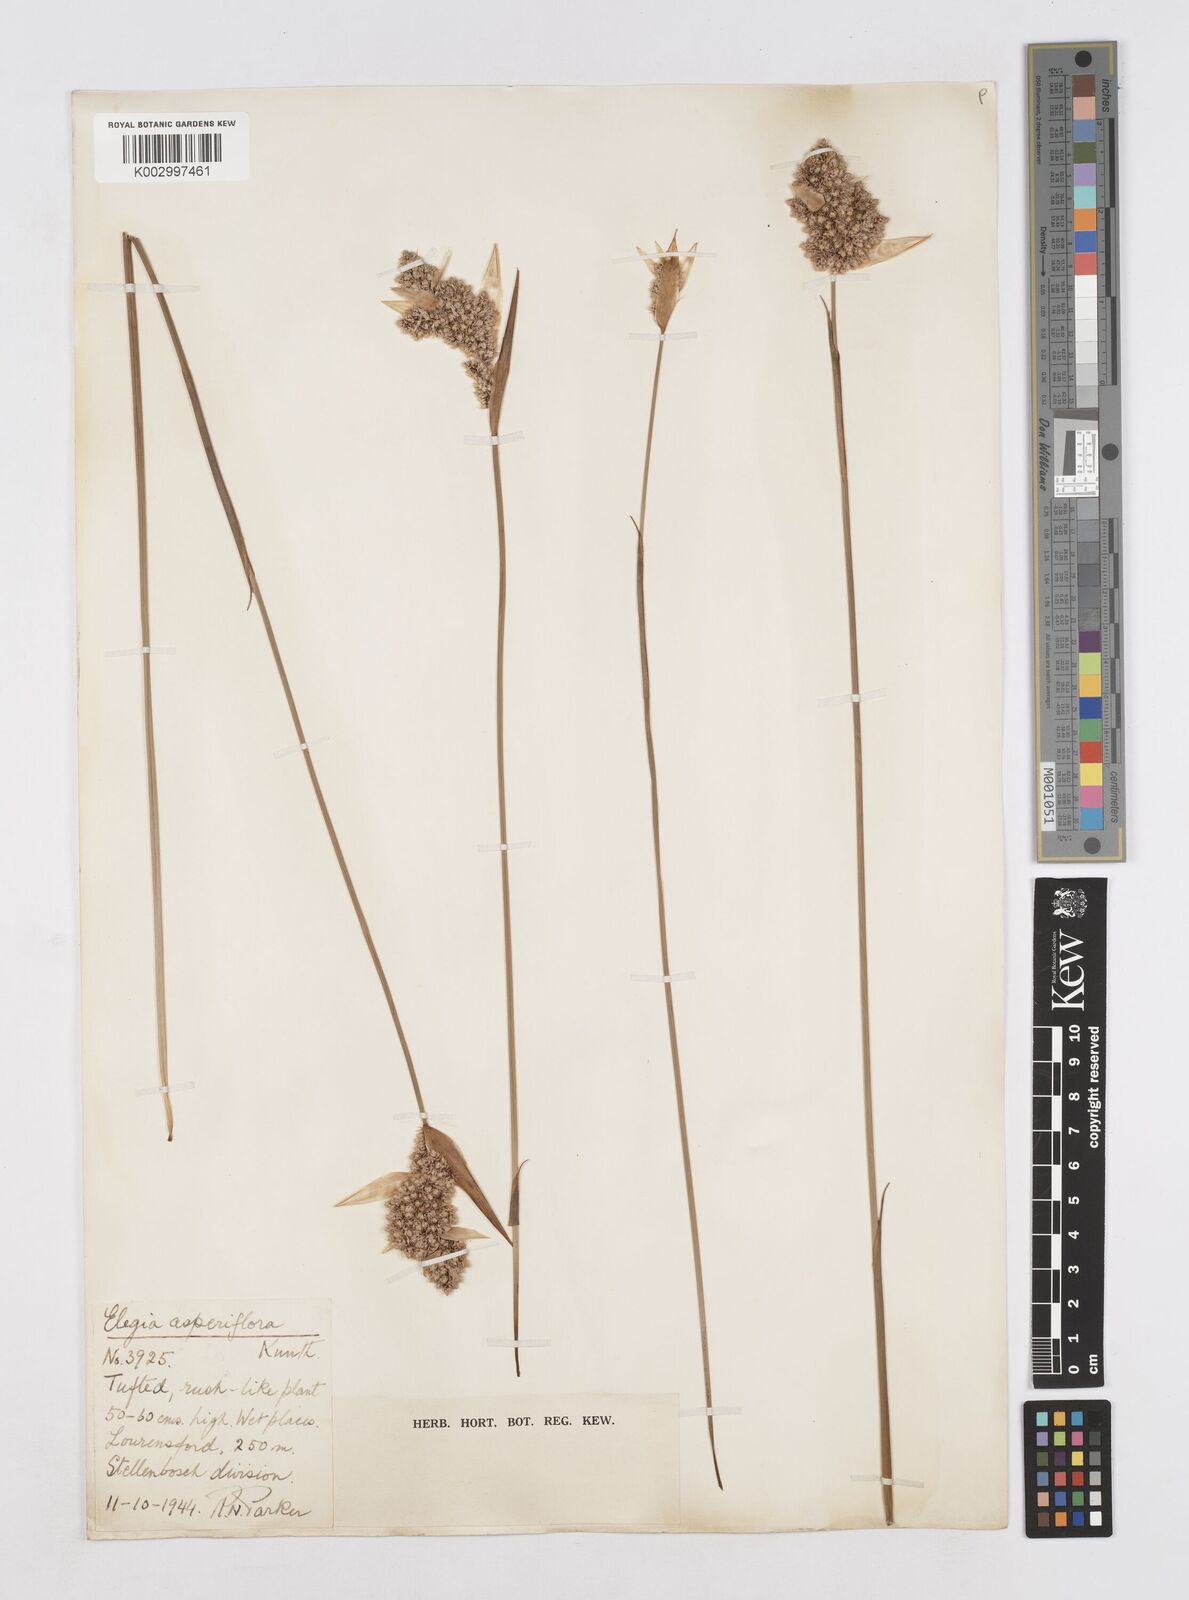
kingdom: Plantae
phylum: Tracheophyta
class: Liliopsida
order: Poales
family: Restionaceae
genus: Elegia
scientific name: Elegia asperiflora
